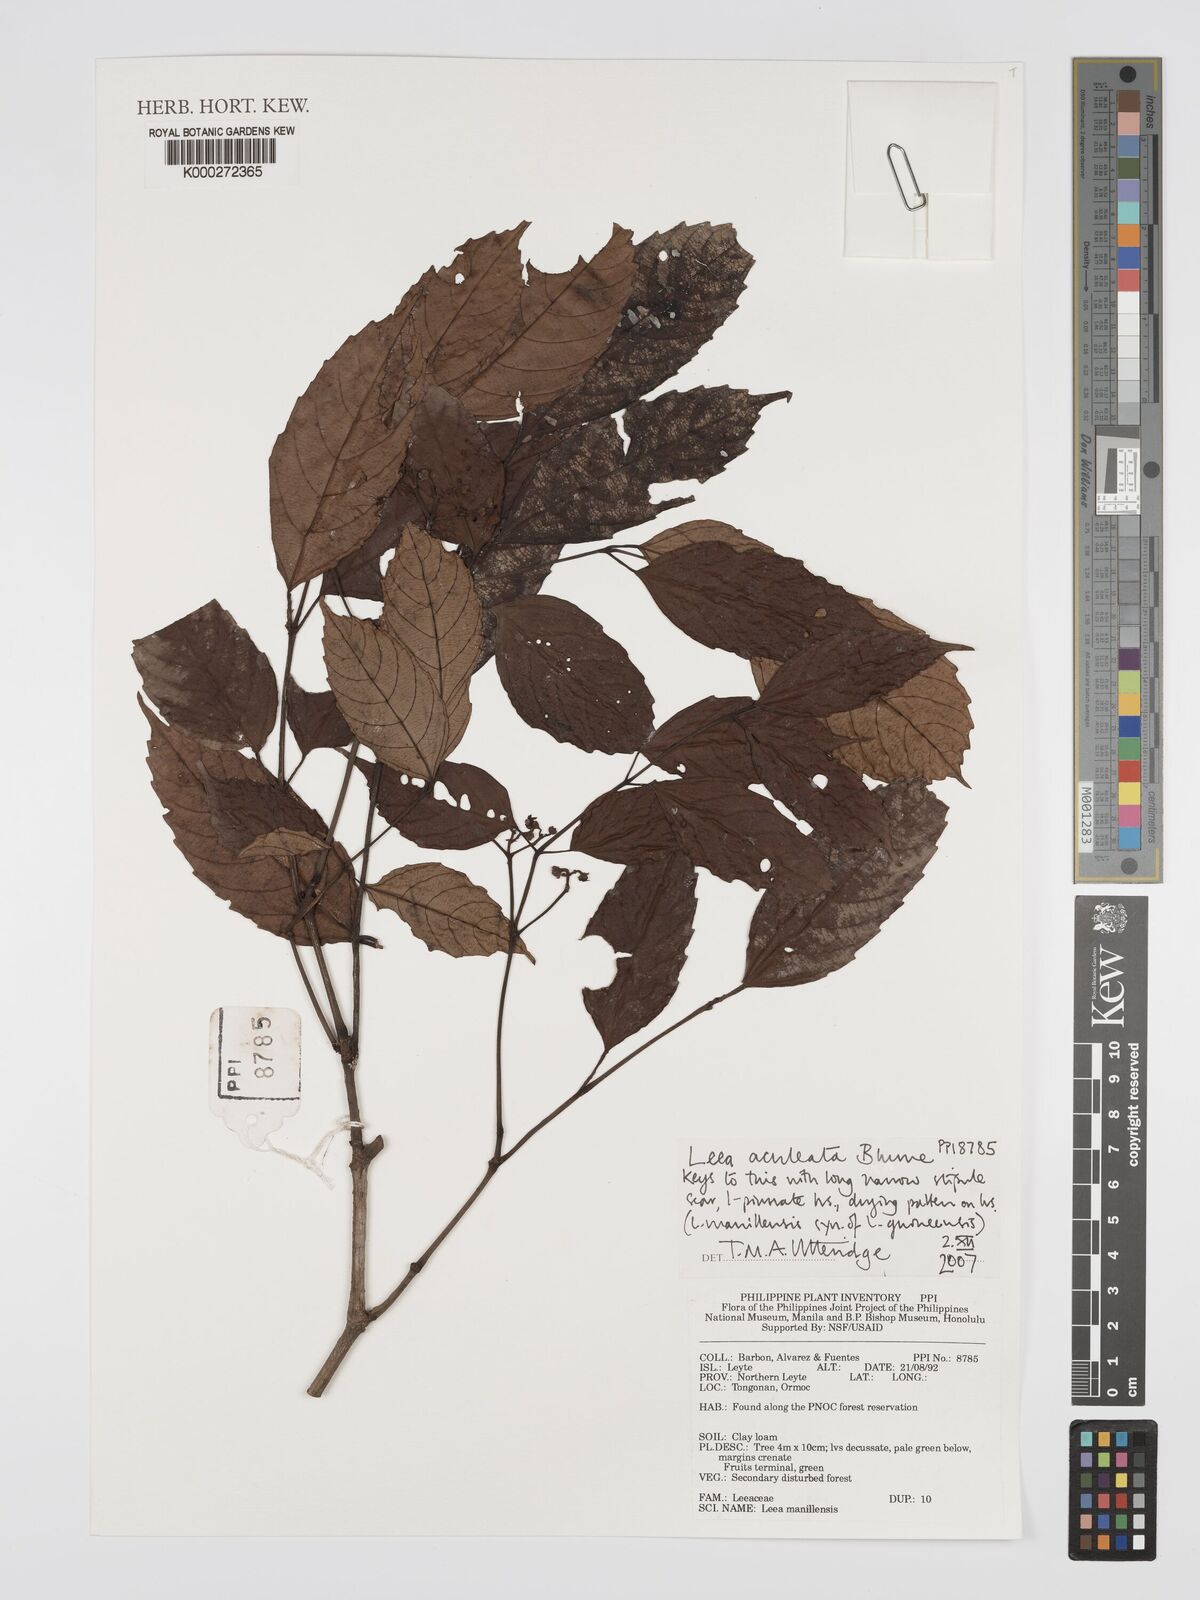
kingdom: Plantae
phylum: Tracheophyta
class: Magnoliopsida
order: Vitales
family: Vitaceae
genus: Leea
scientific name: Leea aculeata
